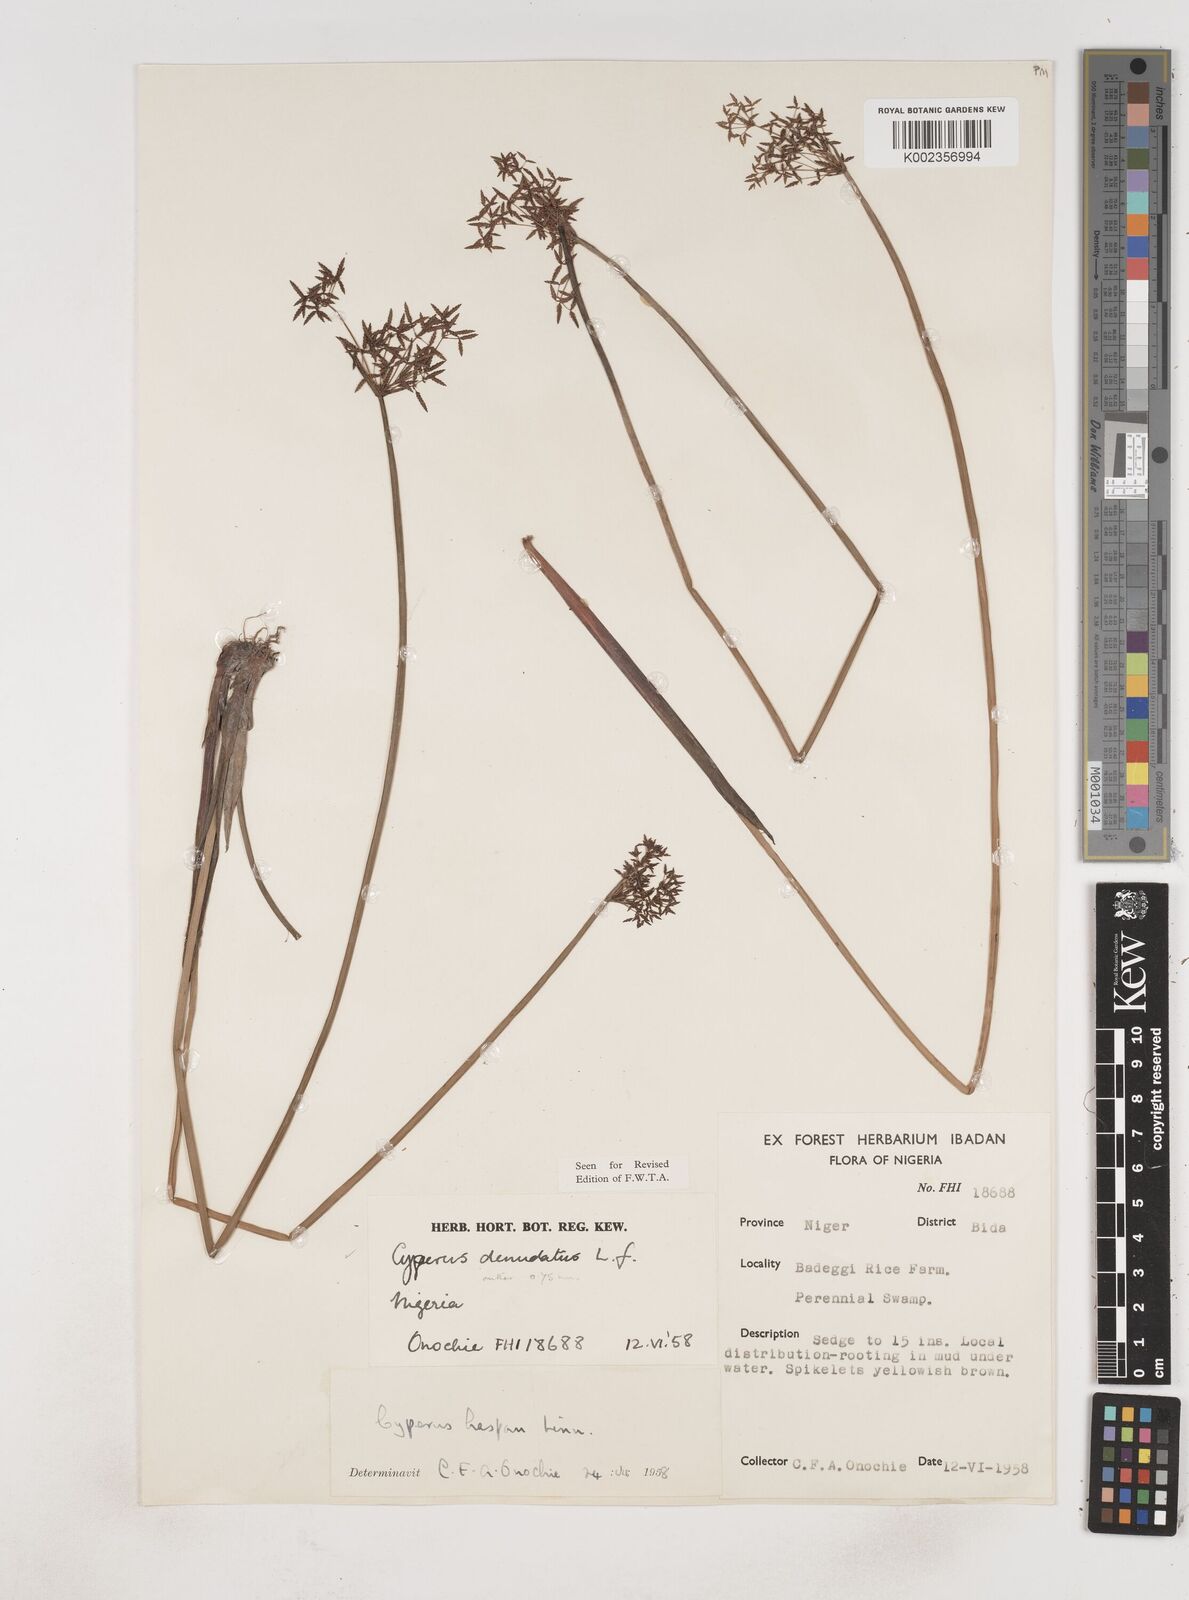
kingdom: Plantae
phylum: Tracheophyta
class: Liliopsida
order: Poales
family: Cyperaceae
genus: Cyperus
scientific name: Cyperus denudatus
